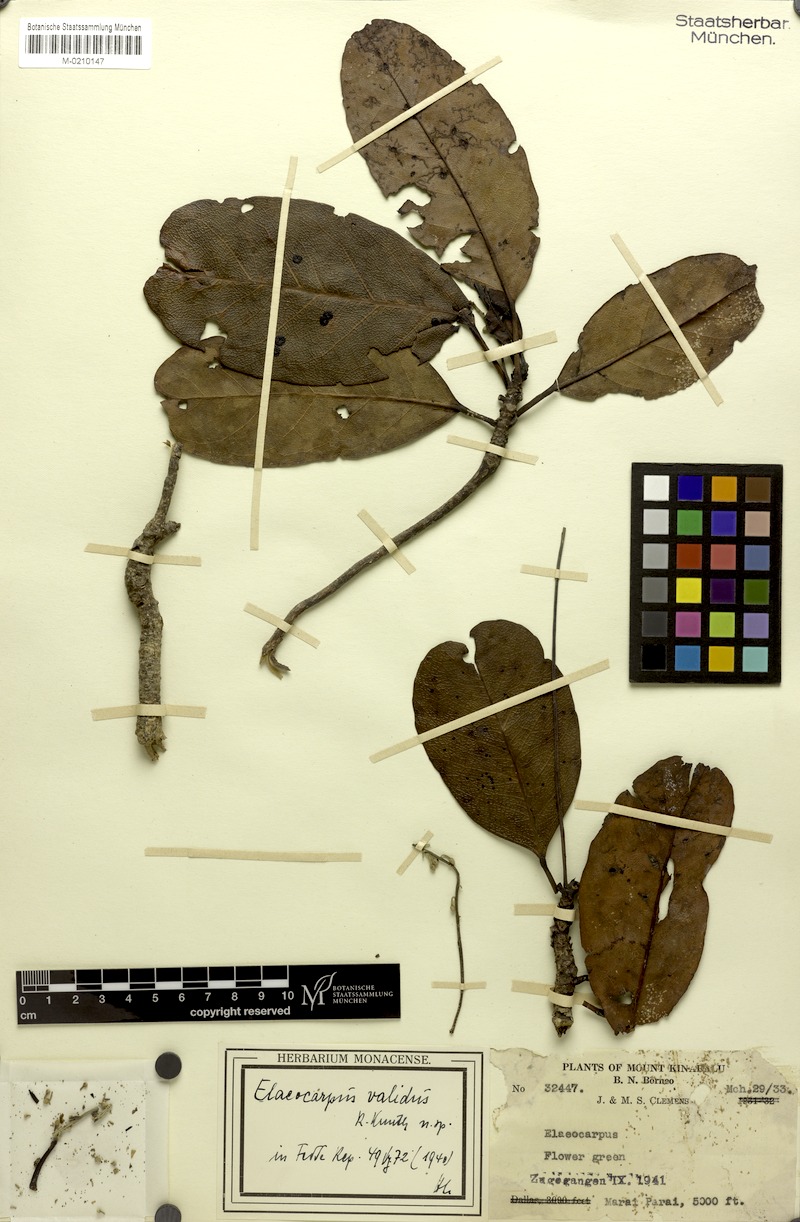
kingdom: Plantae
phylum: Tracheophyta
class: Magnoliopsida
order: Oxalidales
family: Elaeocarpaceae
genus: Elaeocarpus
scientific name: Elaeocarpus validus
